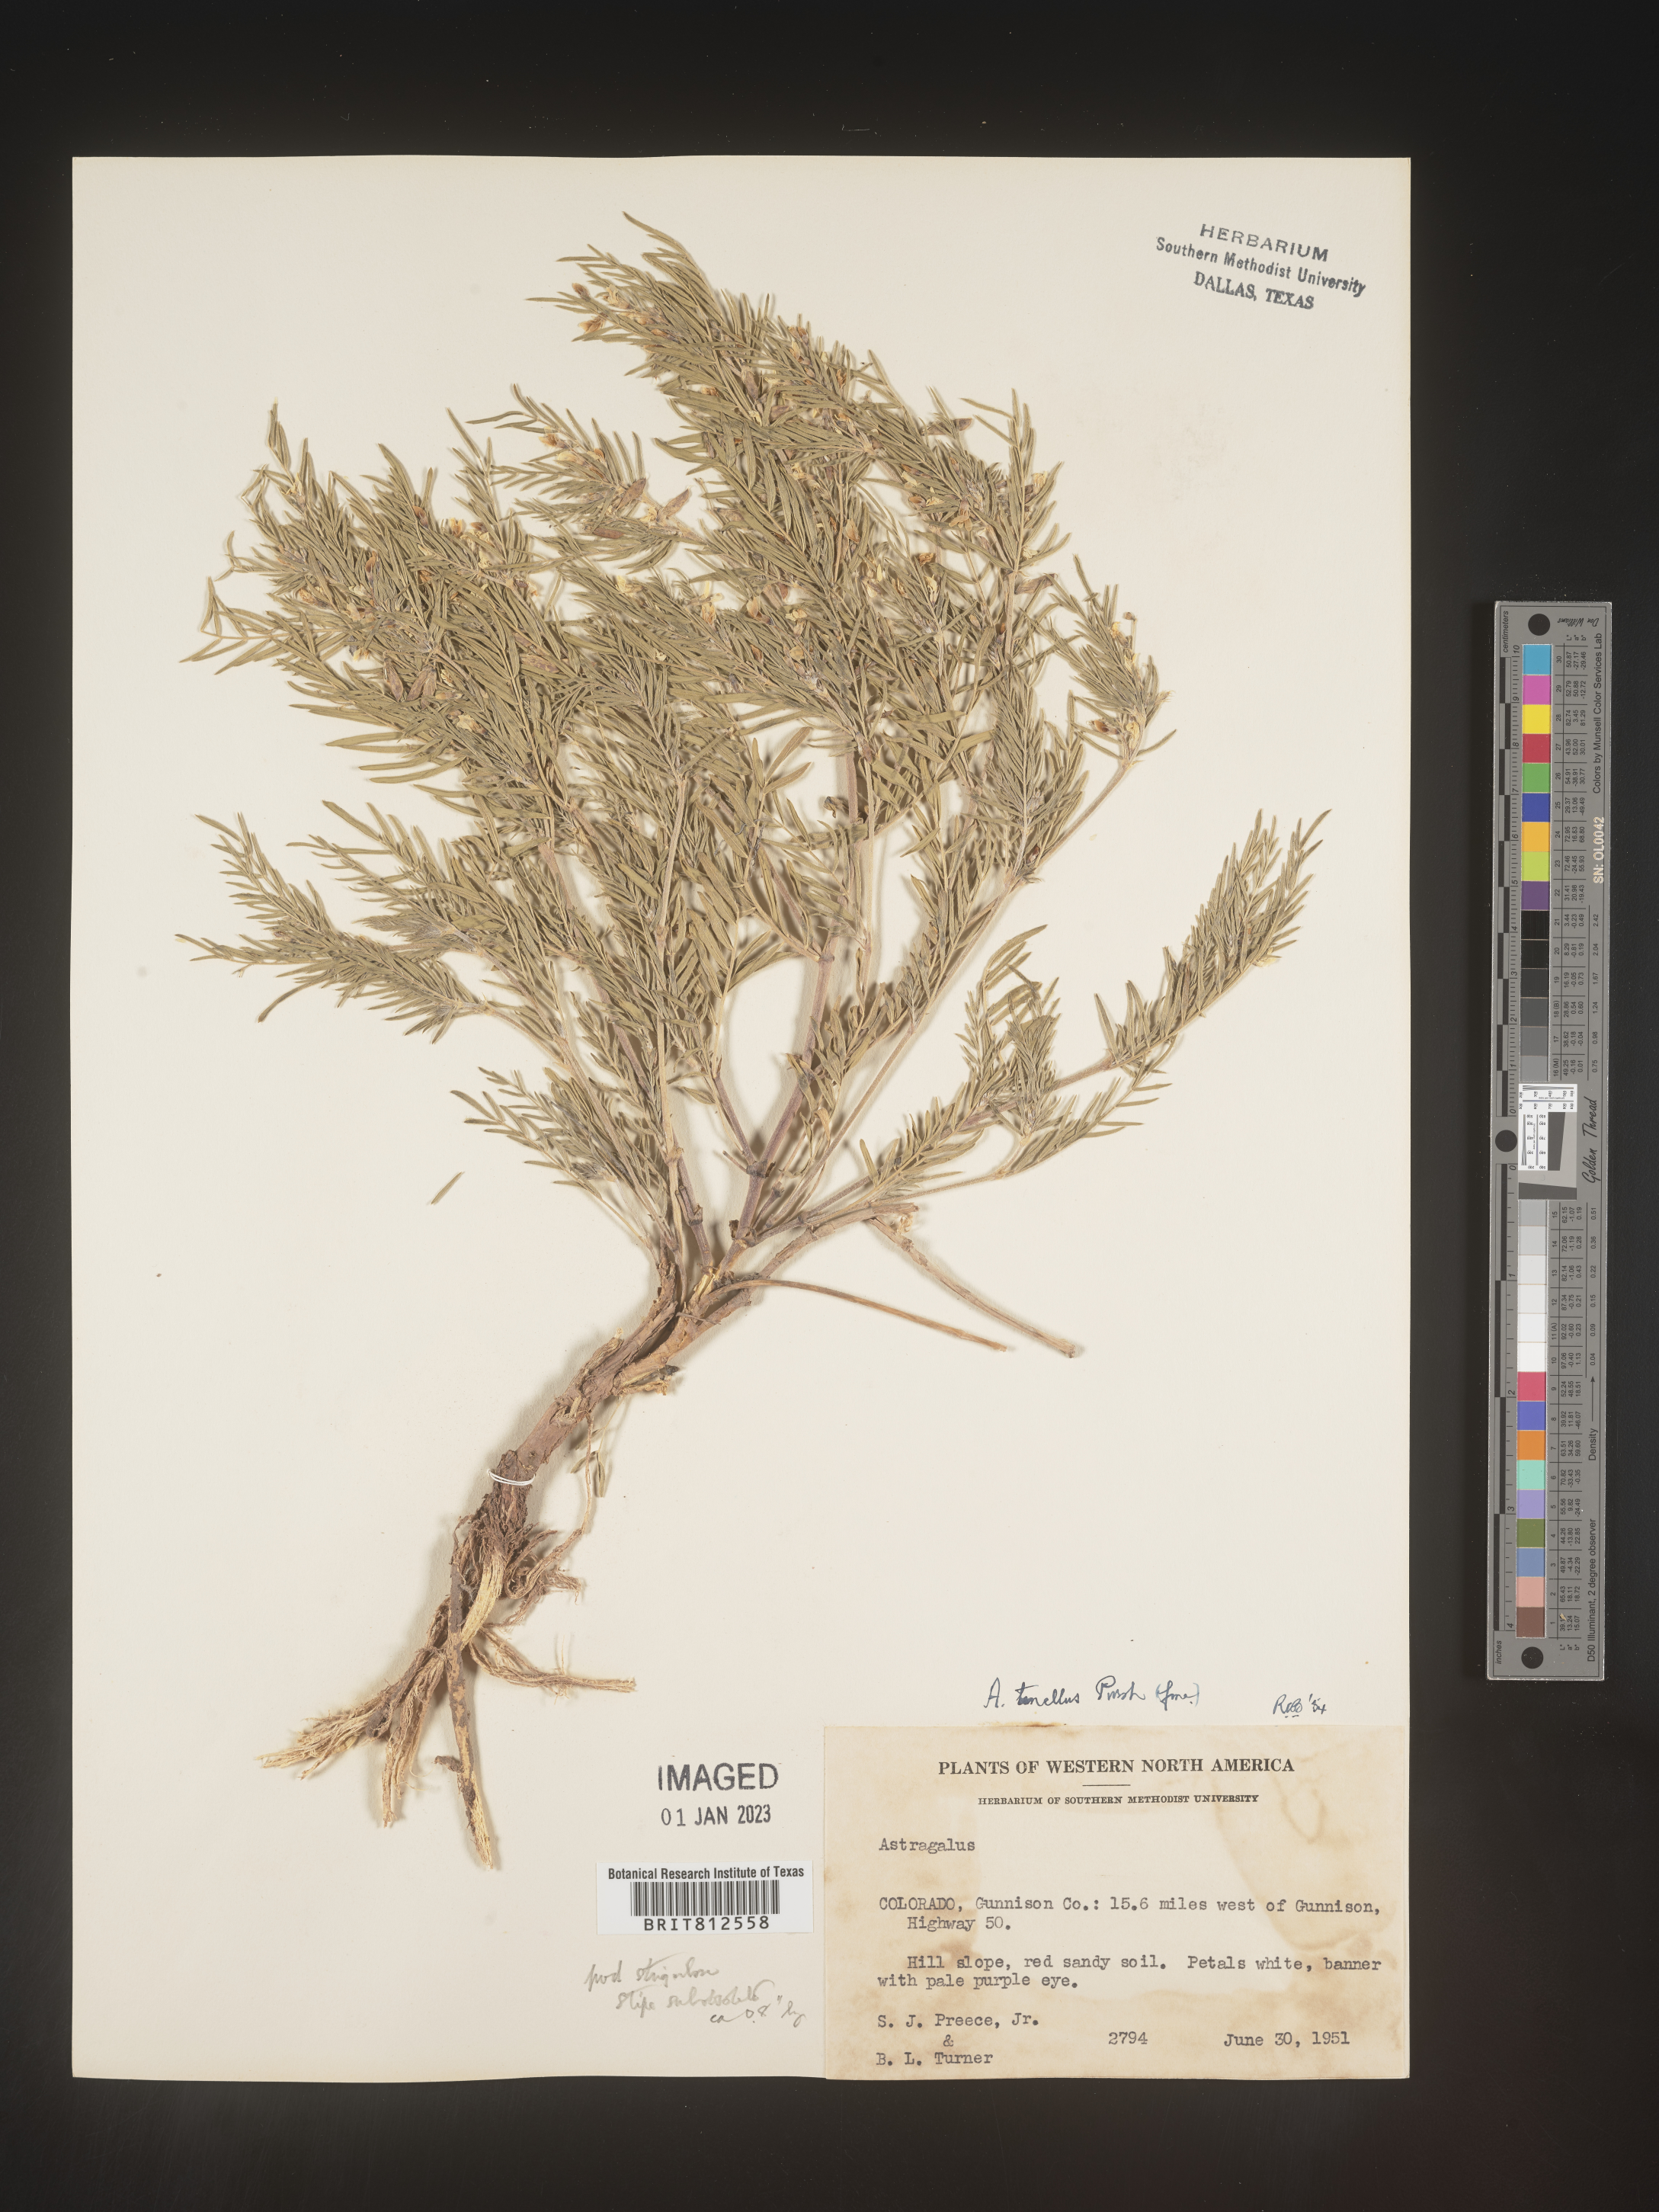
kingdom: Plantae
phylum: Tracheophyta
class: Magnoliopsida
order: Fabales
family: Fabaceae
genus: Astragalus
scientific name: Astragalus
